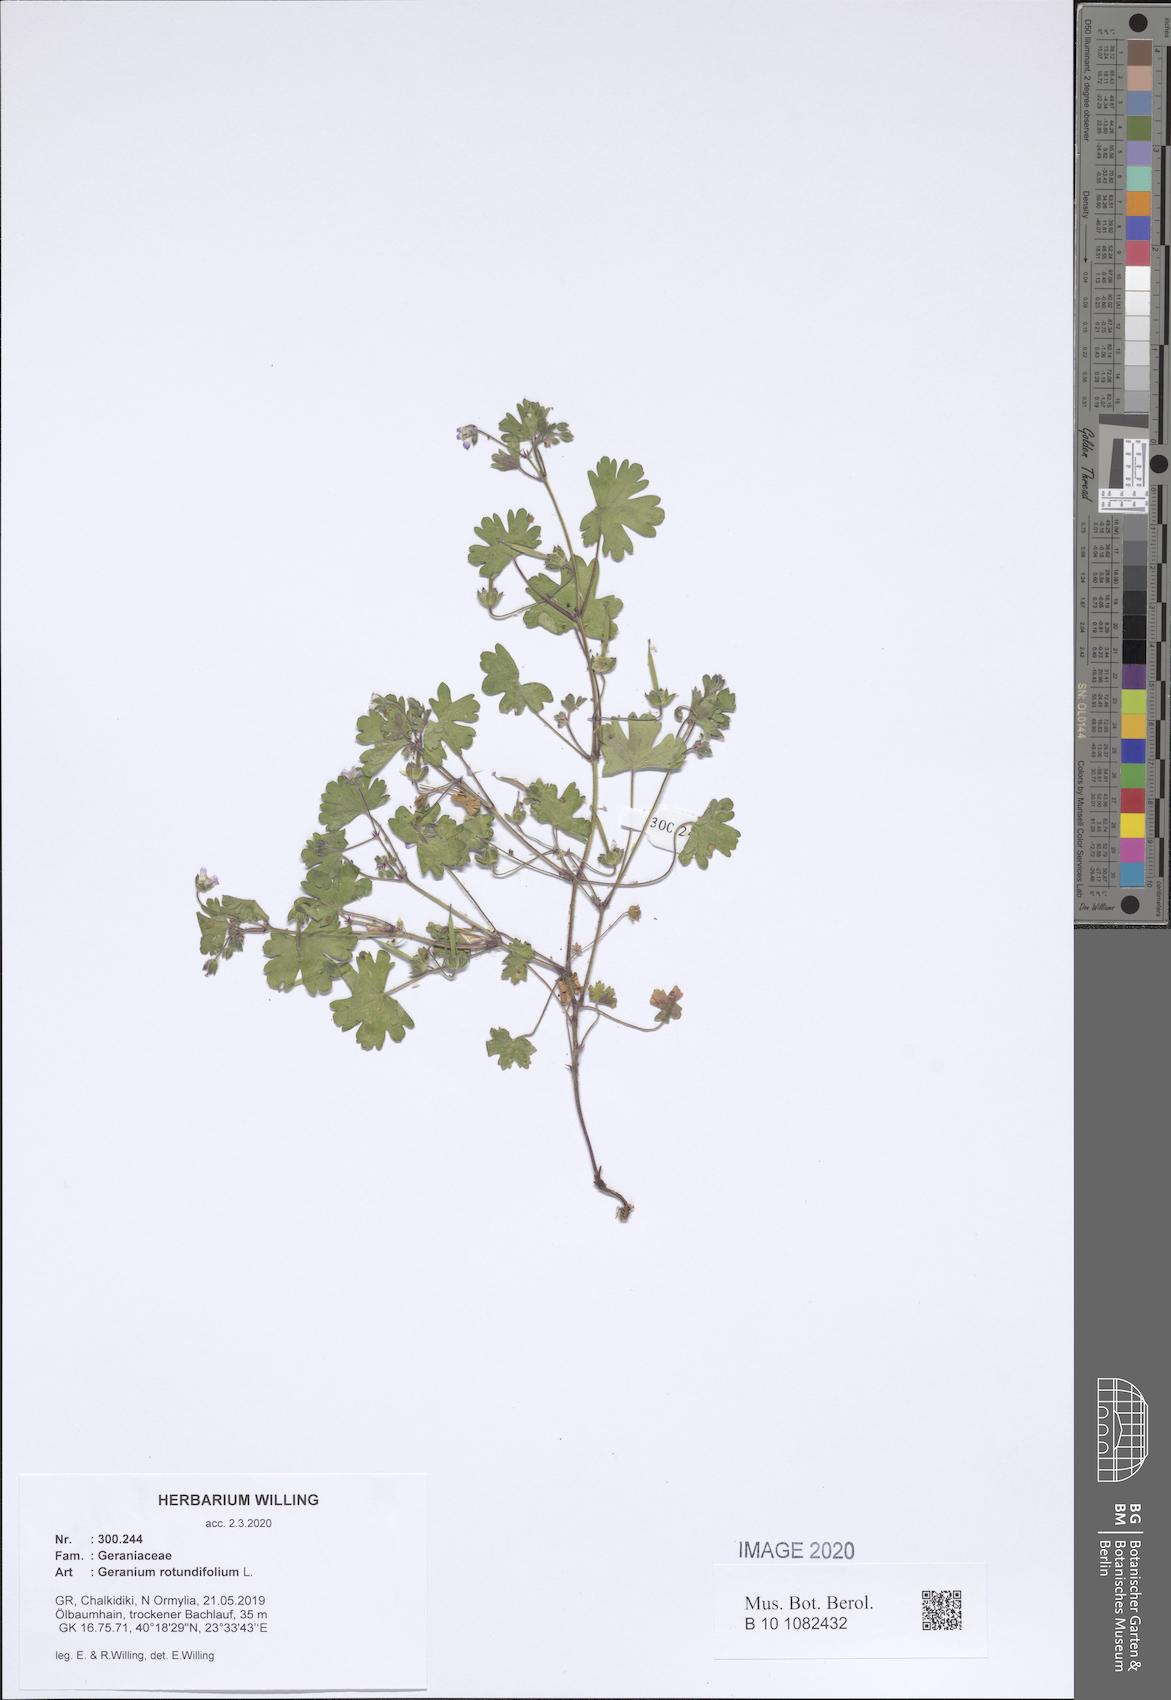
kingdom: Plantae
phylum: Tracheophyta
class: Magnoliopsida
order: Geraniales
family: Geraniaceae
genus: Geranium
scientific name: Geranium rotundifolium
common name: Round-leaved crane's-bill
